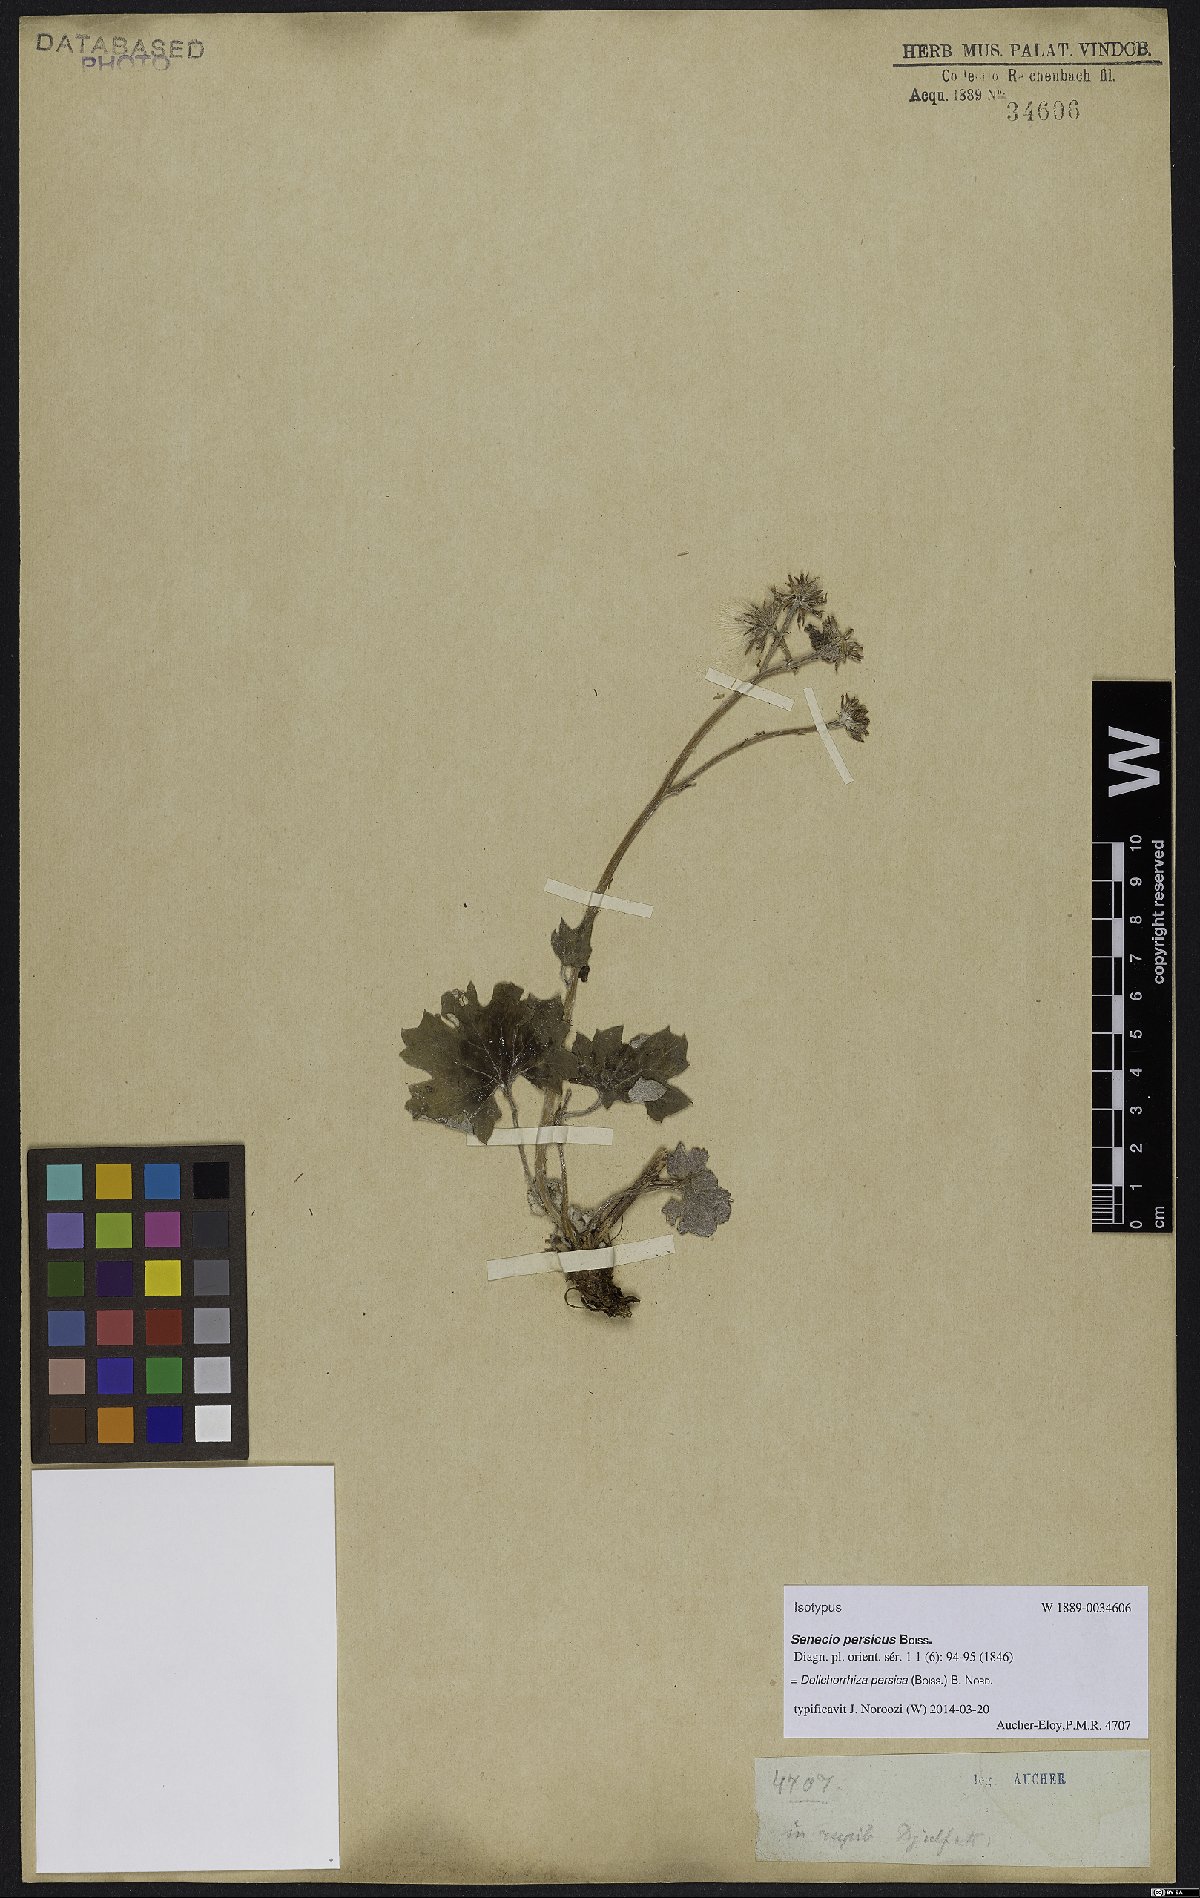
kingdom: Plantae
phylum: Tracheophyta
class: Magnoliopsida
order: Asterales
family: Asteraceae
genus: Dolichorrhiza
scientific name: Dolichorrhiza persica
